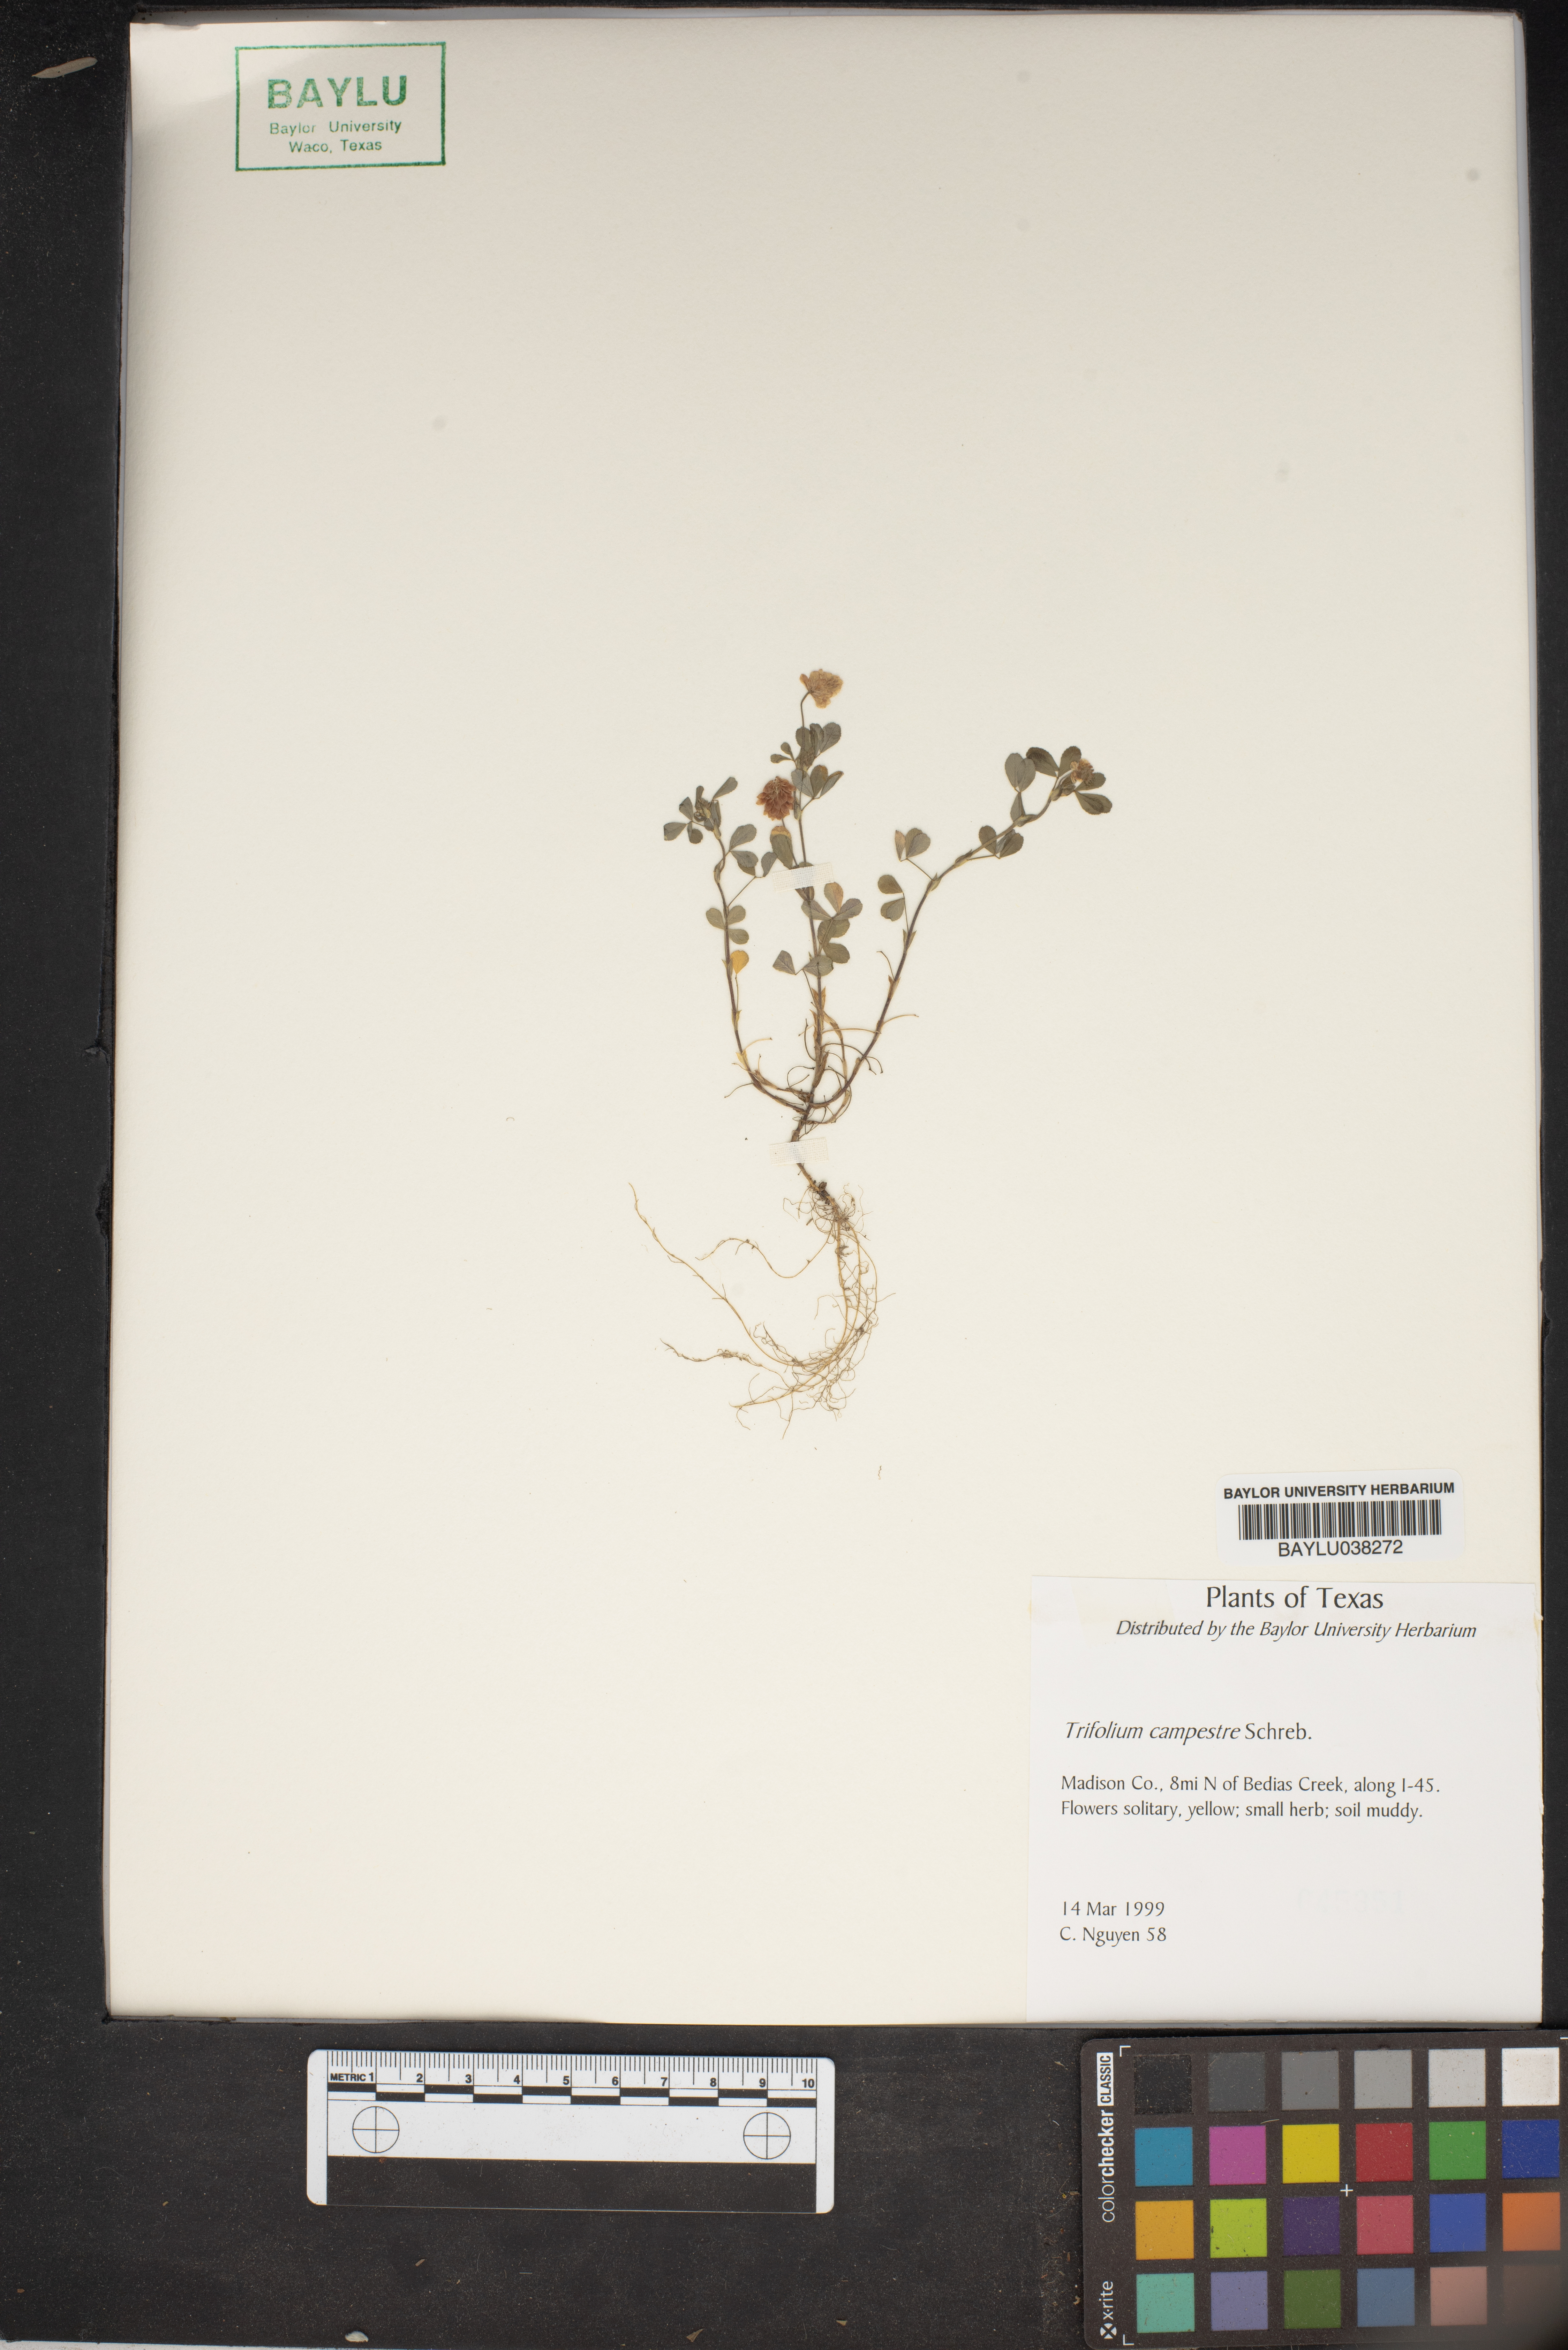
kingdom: Plantae
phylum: Tracheophyta
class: Magnoliopsida
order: Fabales
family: Fabaceae
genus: Trifolium
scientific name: Trifolium campestre
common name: Field clover
